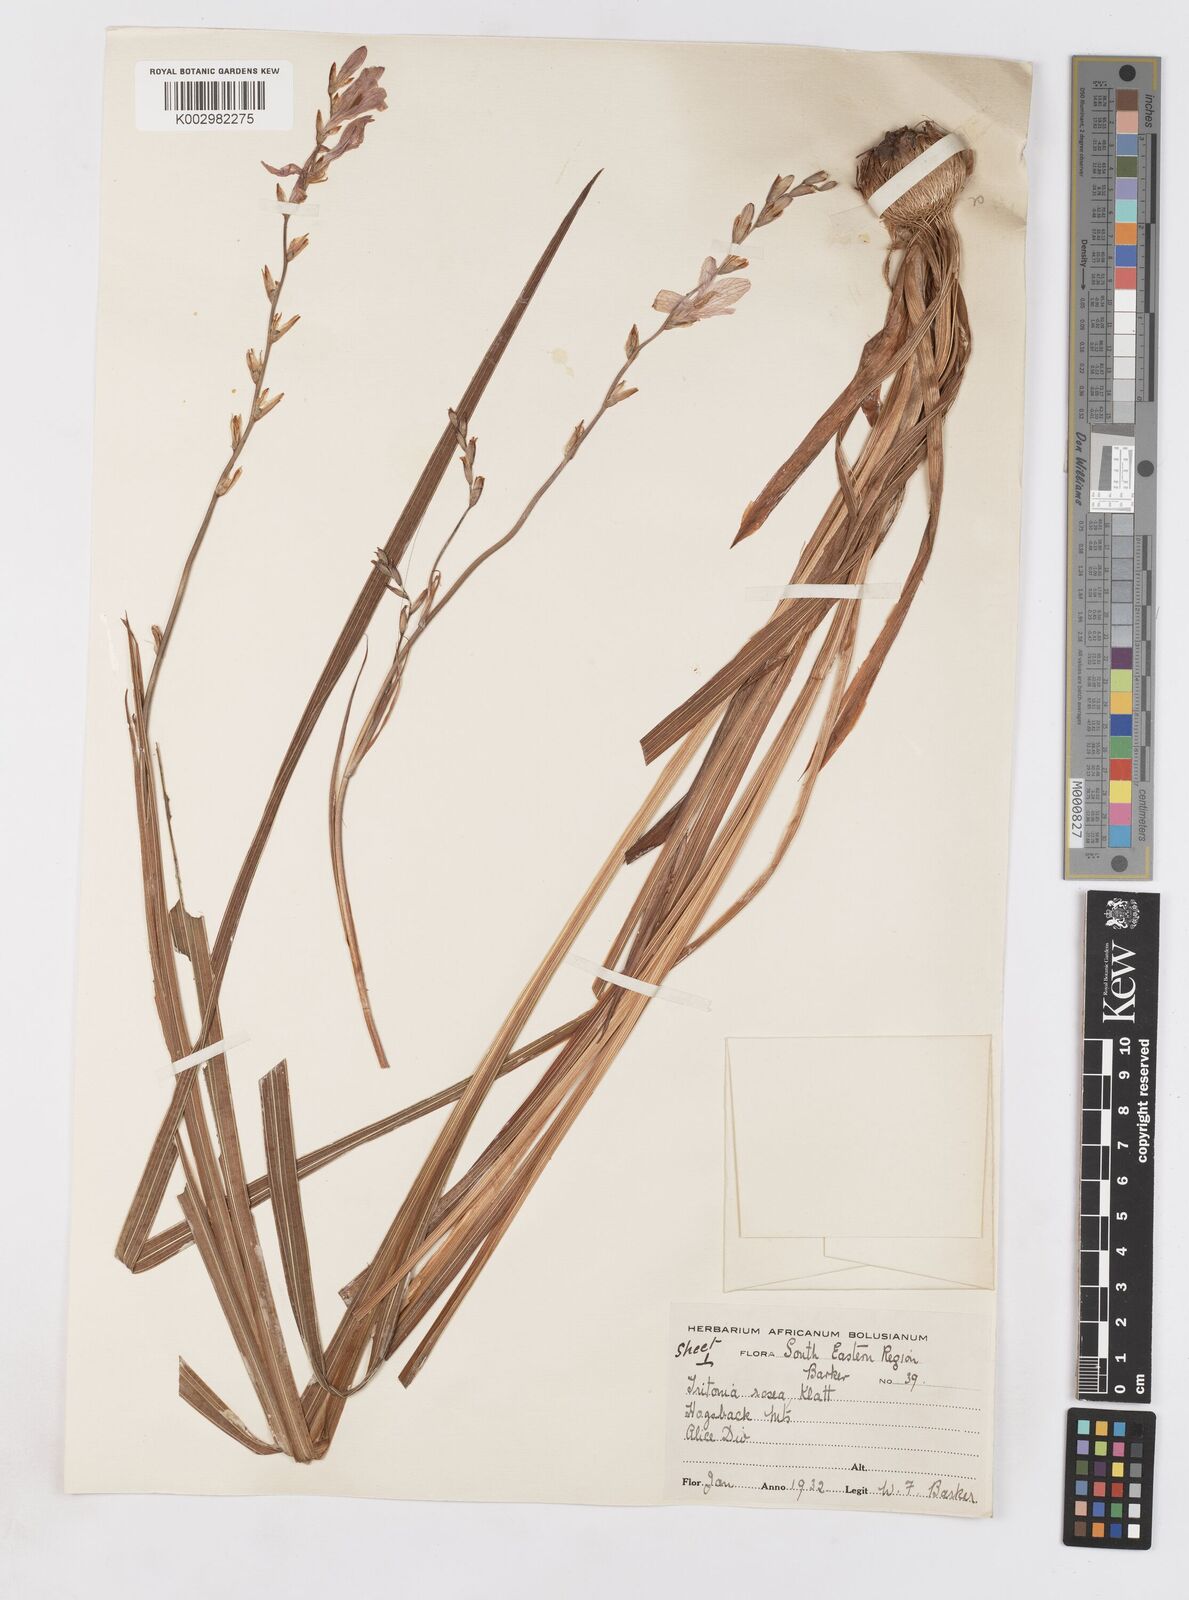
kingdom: Plantae
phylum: Tracheophyta
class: Liliopsida
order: Asparagales
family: Iridaceae
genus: Tritonia
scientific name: Tritonia
